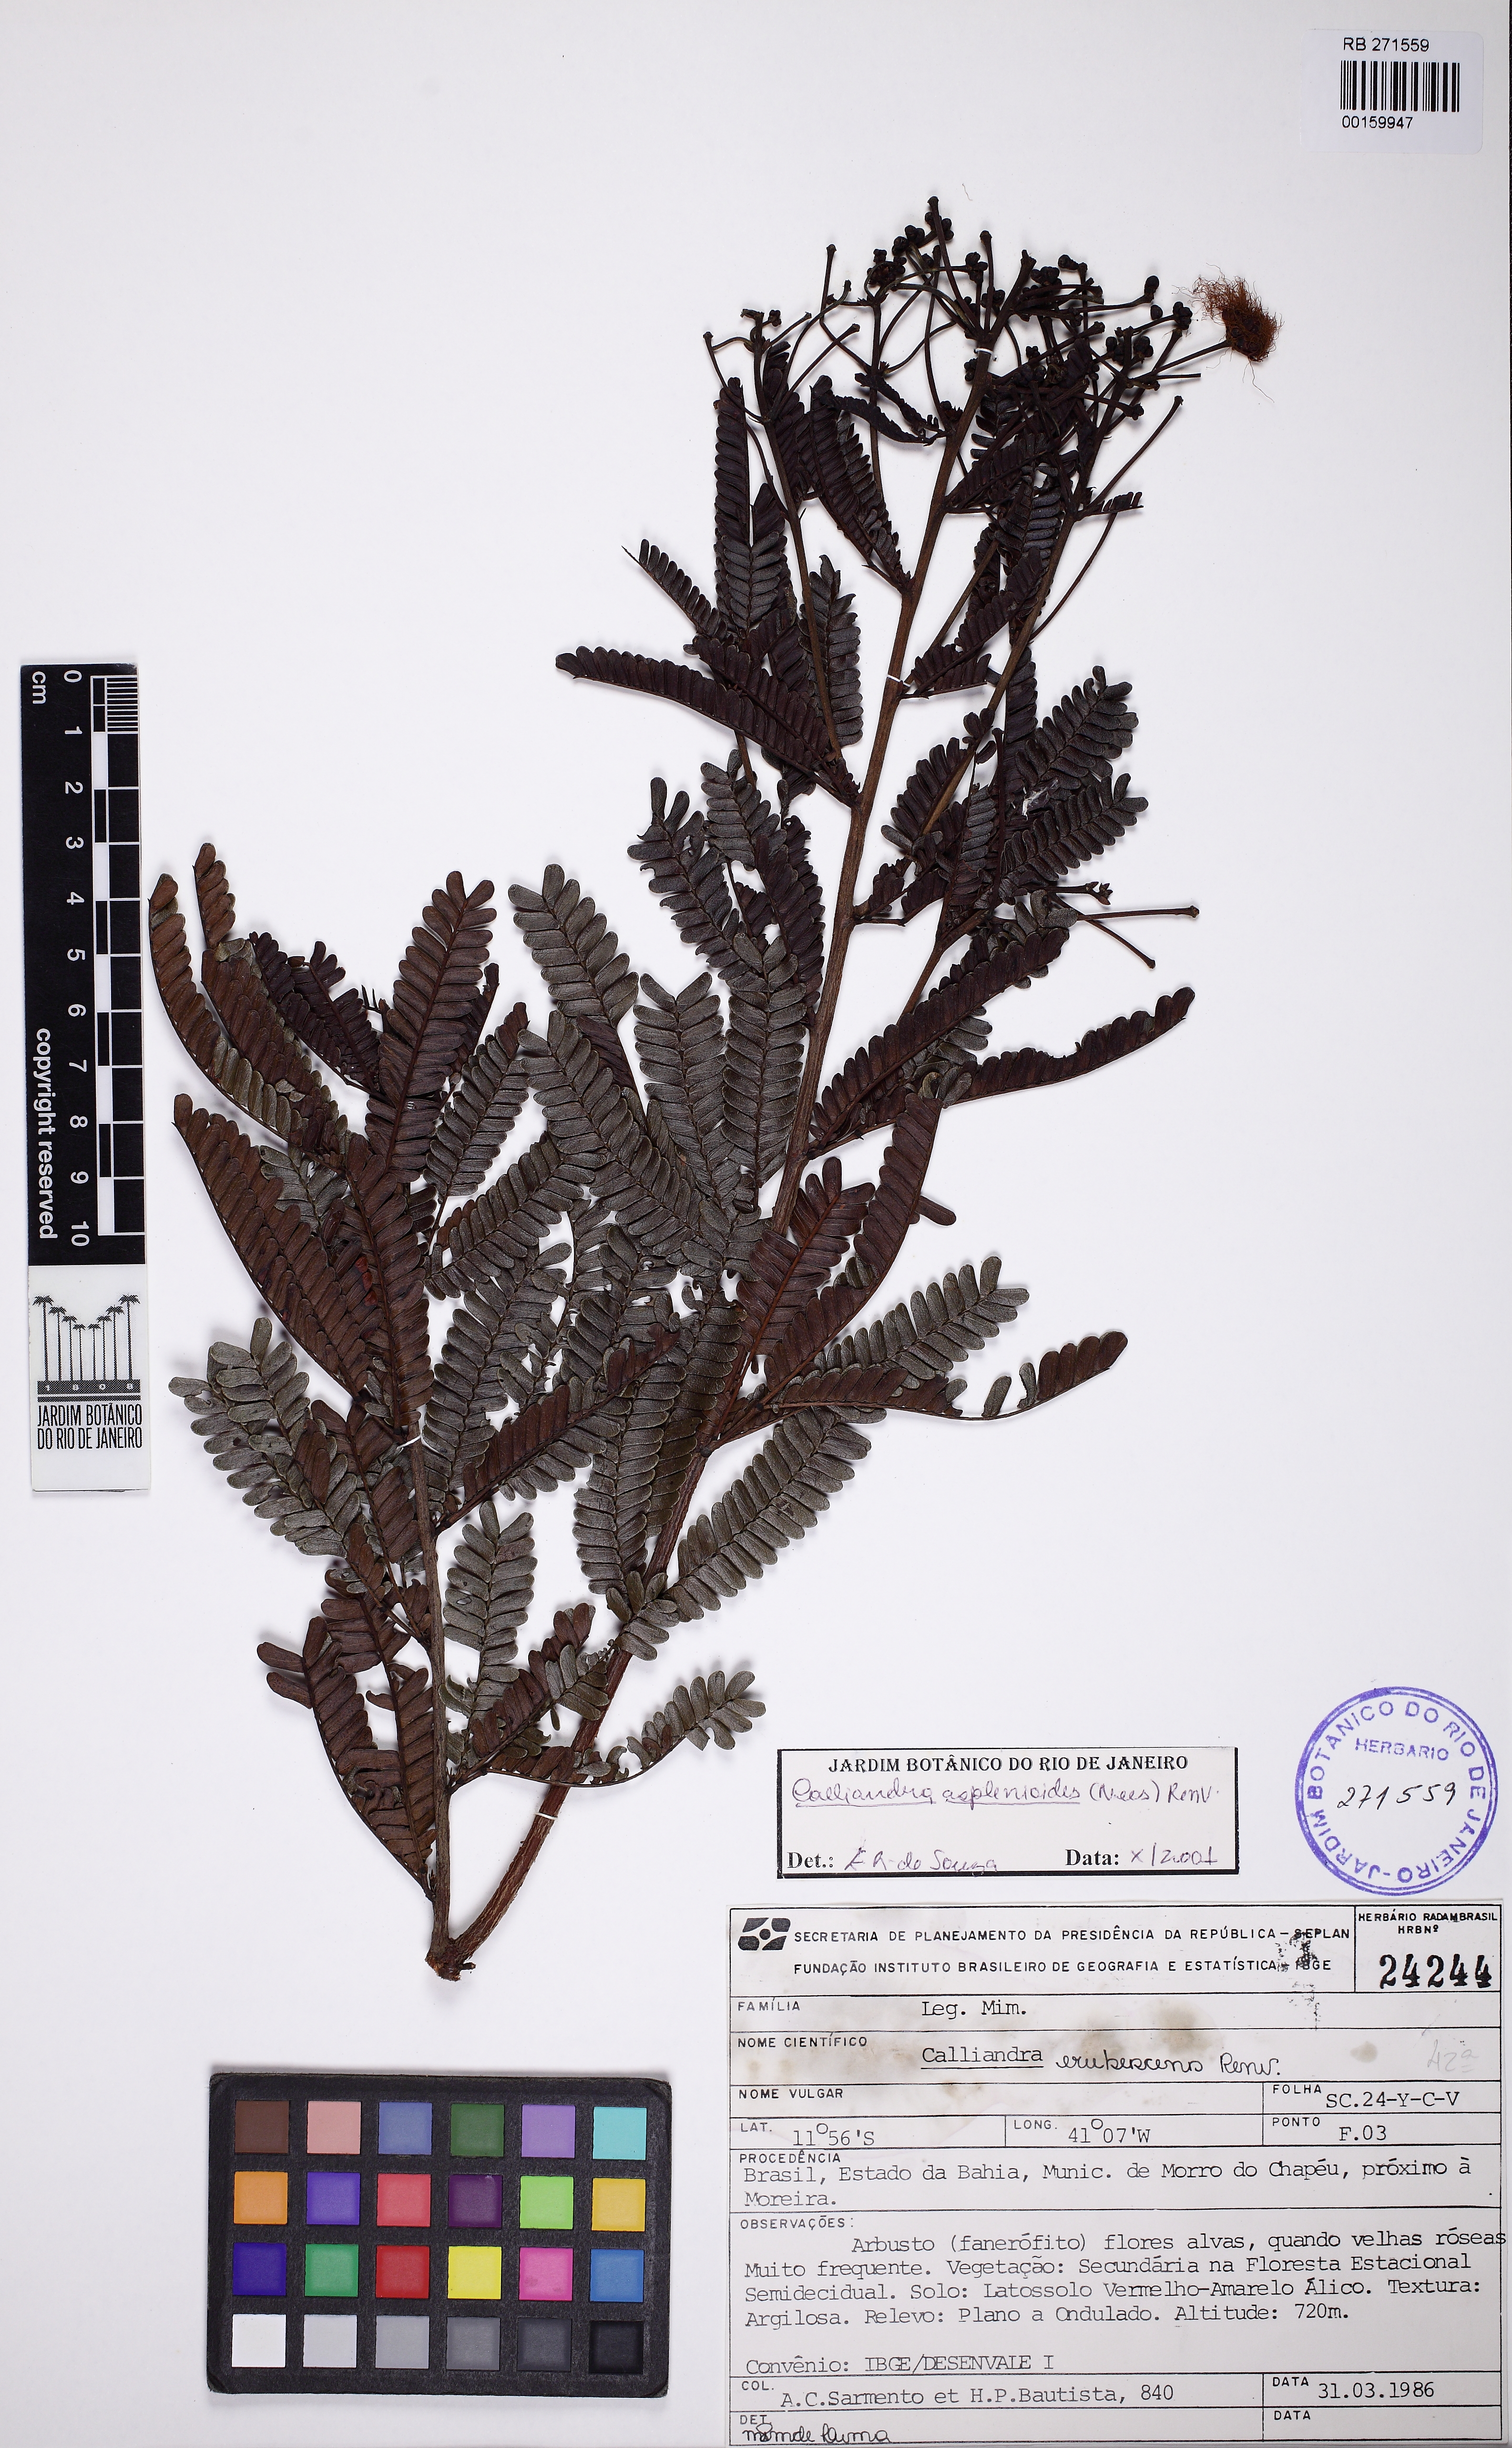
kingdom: Plantae
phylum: Tracheophyta
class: Magnoliopsida
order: Fabales
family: Fabaceae
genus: Calliandra
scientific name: Calliandra asplenioides
